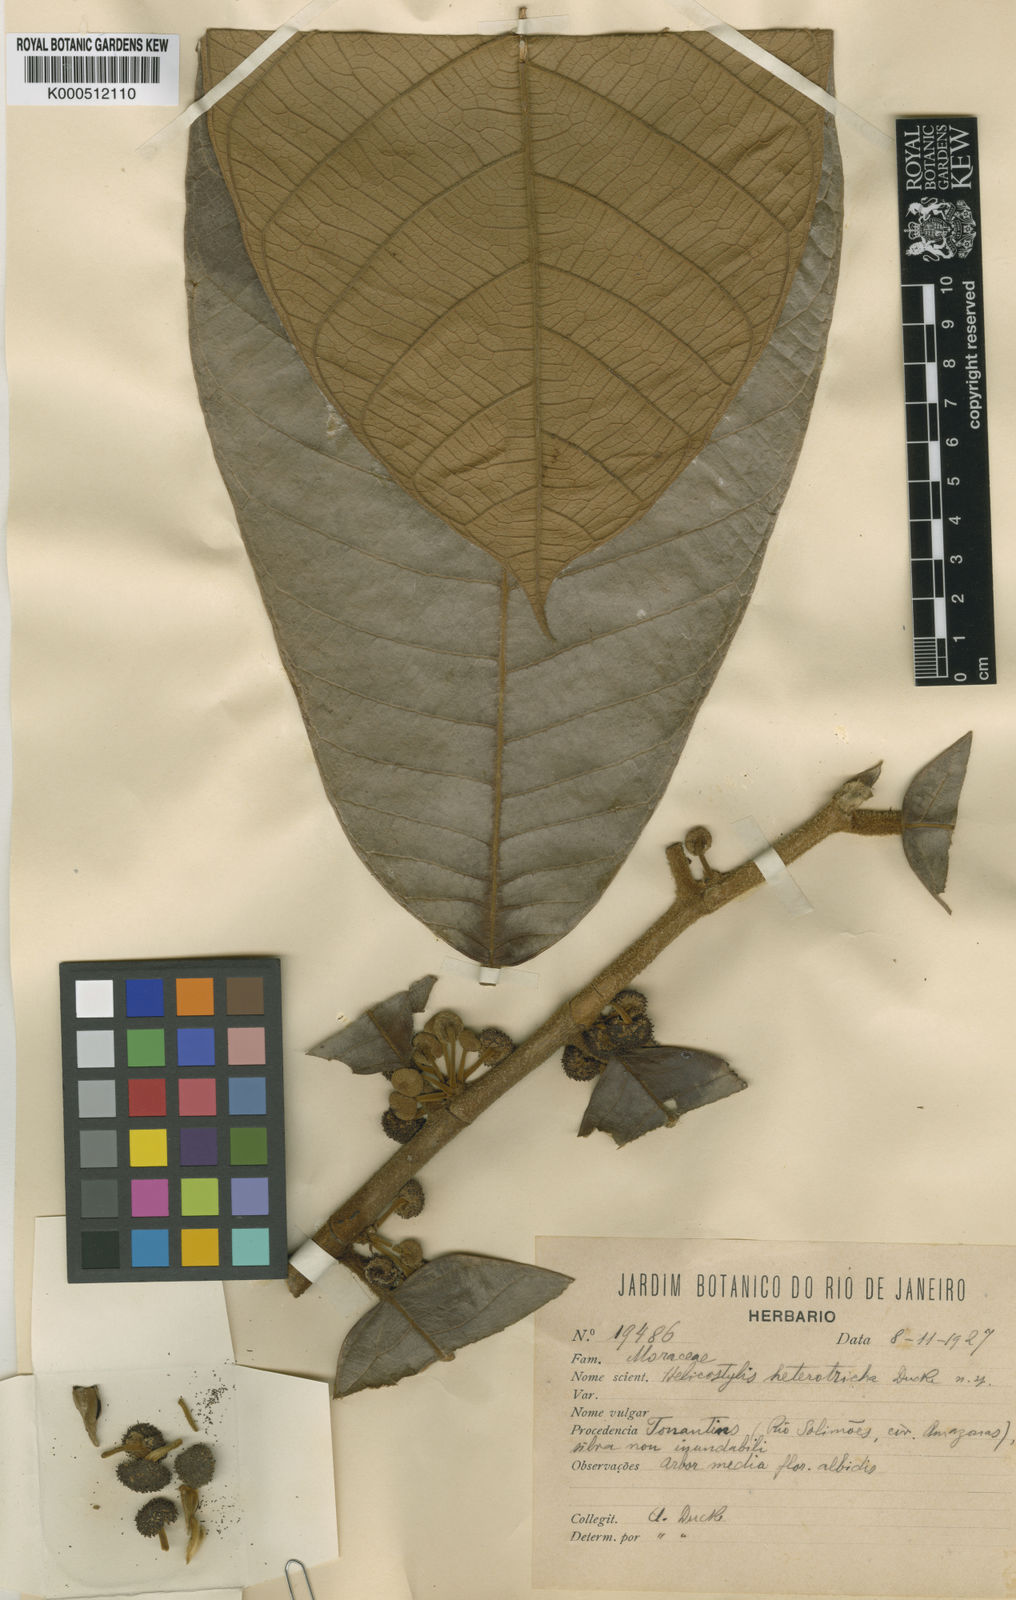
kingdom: Plantae
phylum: Tracheophyta
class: Magnoliopsida
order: Rosales
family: Moraceae
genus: Helicostylis
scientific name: Helicostylis heterotricha
